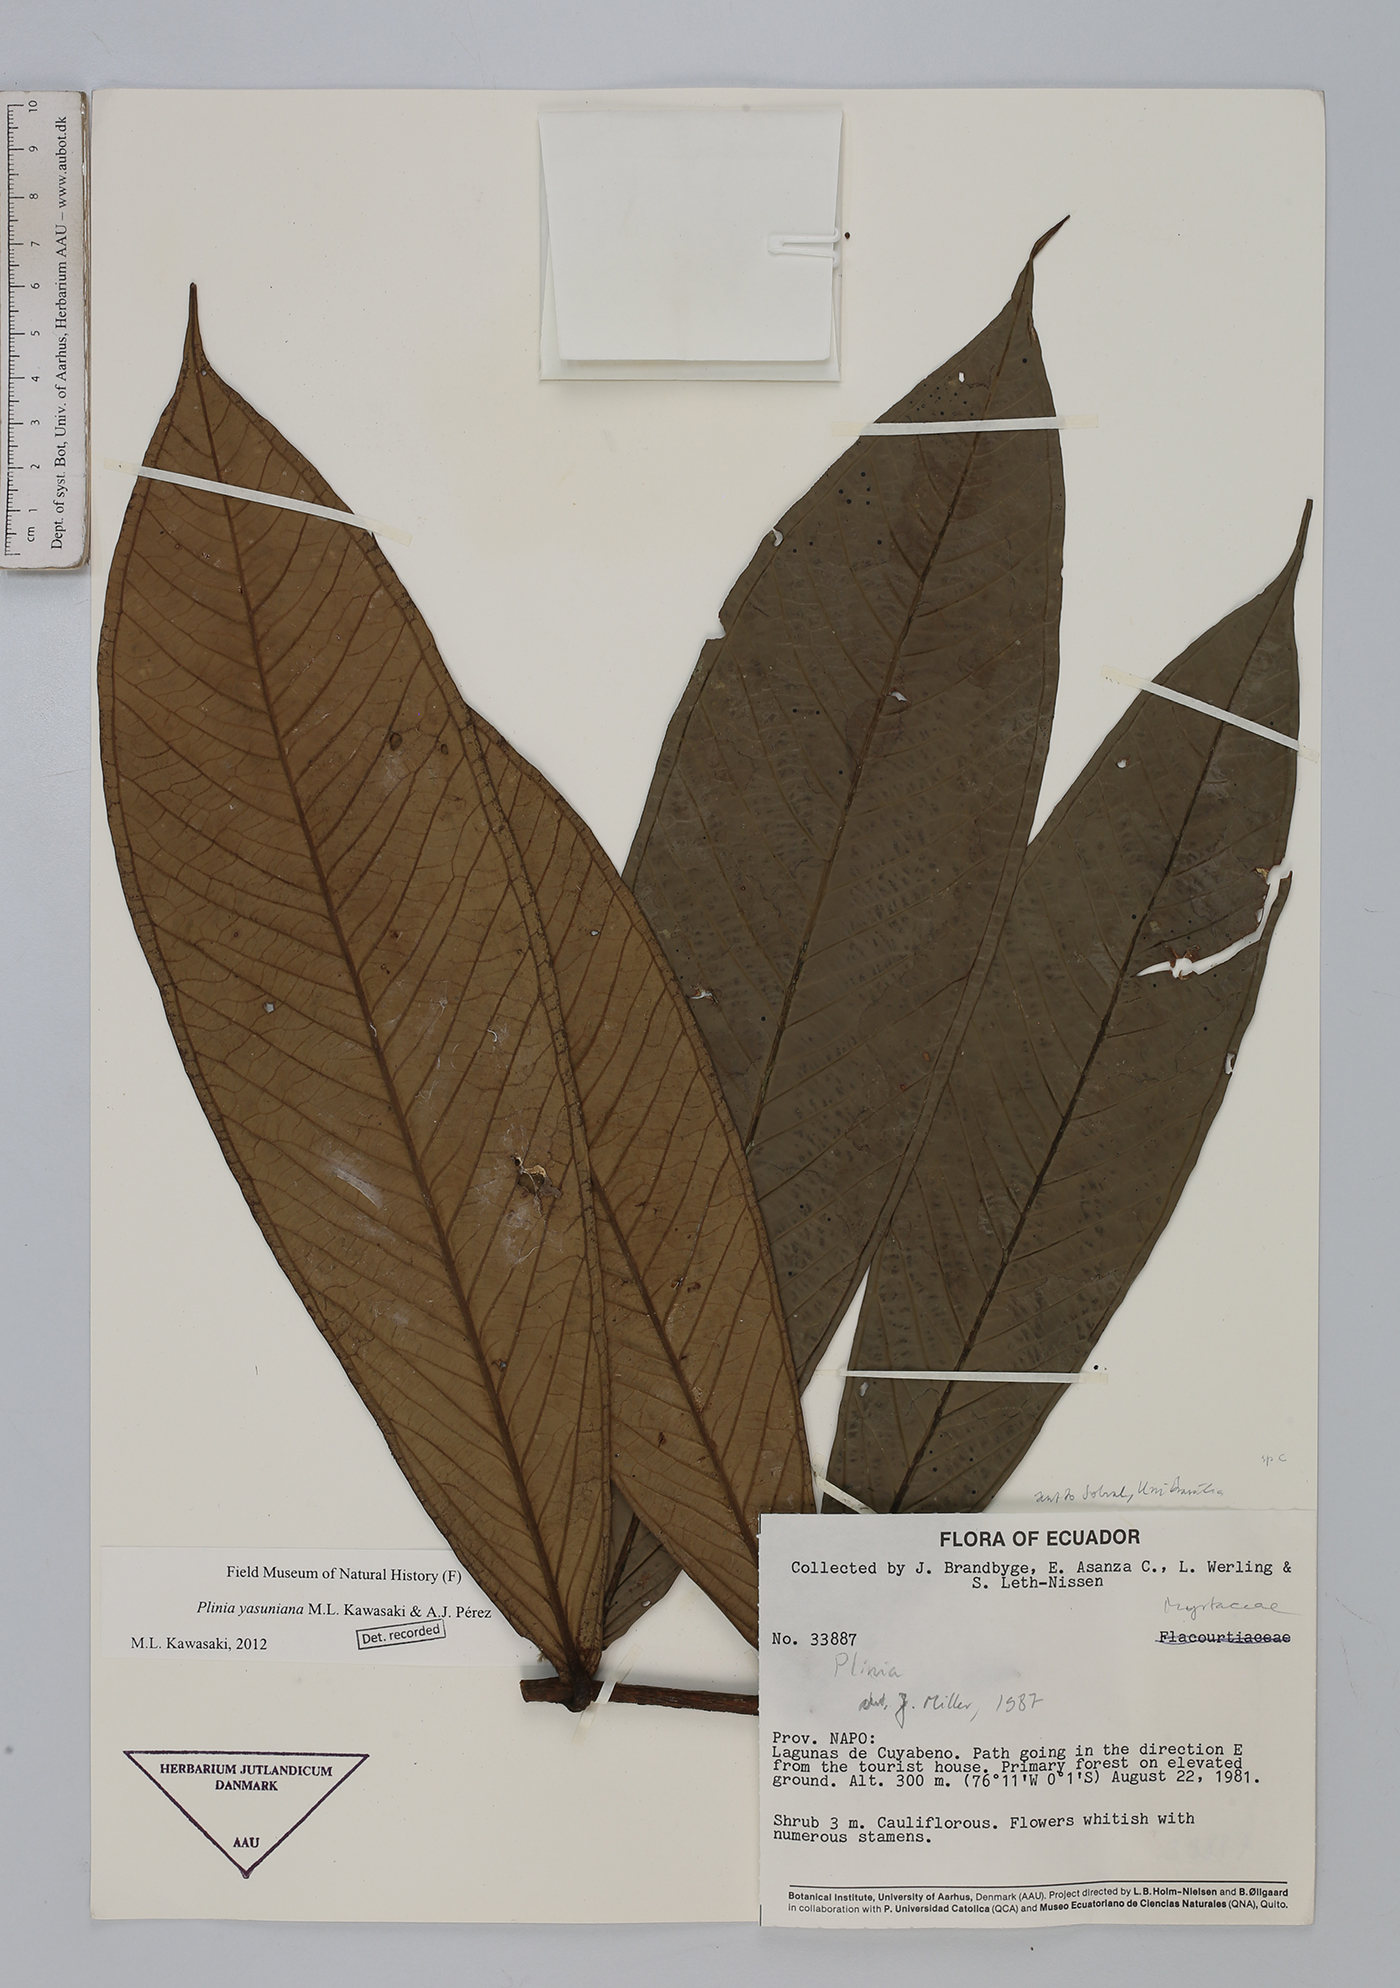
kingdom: Plantae
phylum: Tracheophyta
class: Magnoliopsida
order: Myrtales
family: Myrtaceae
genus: Plinia
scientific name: Plinia yasuniana
